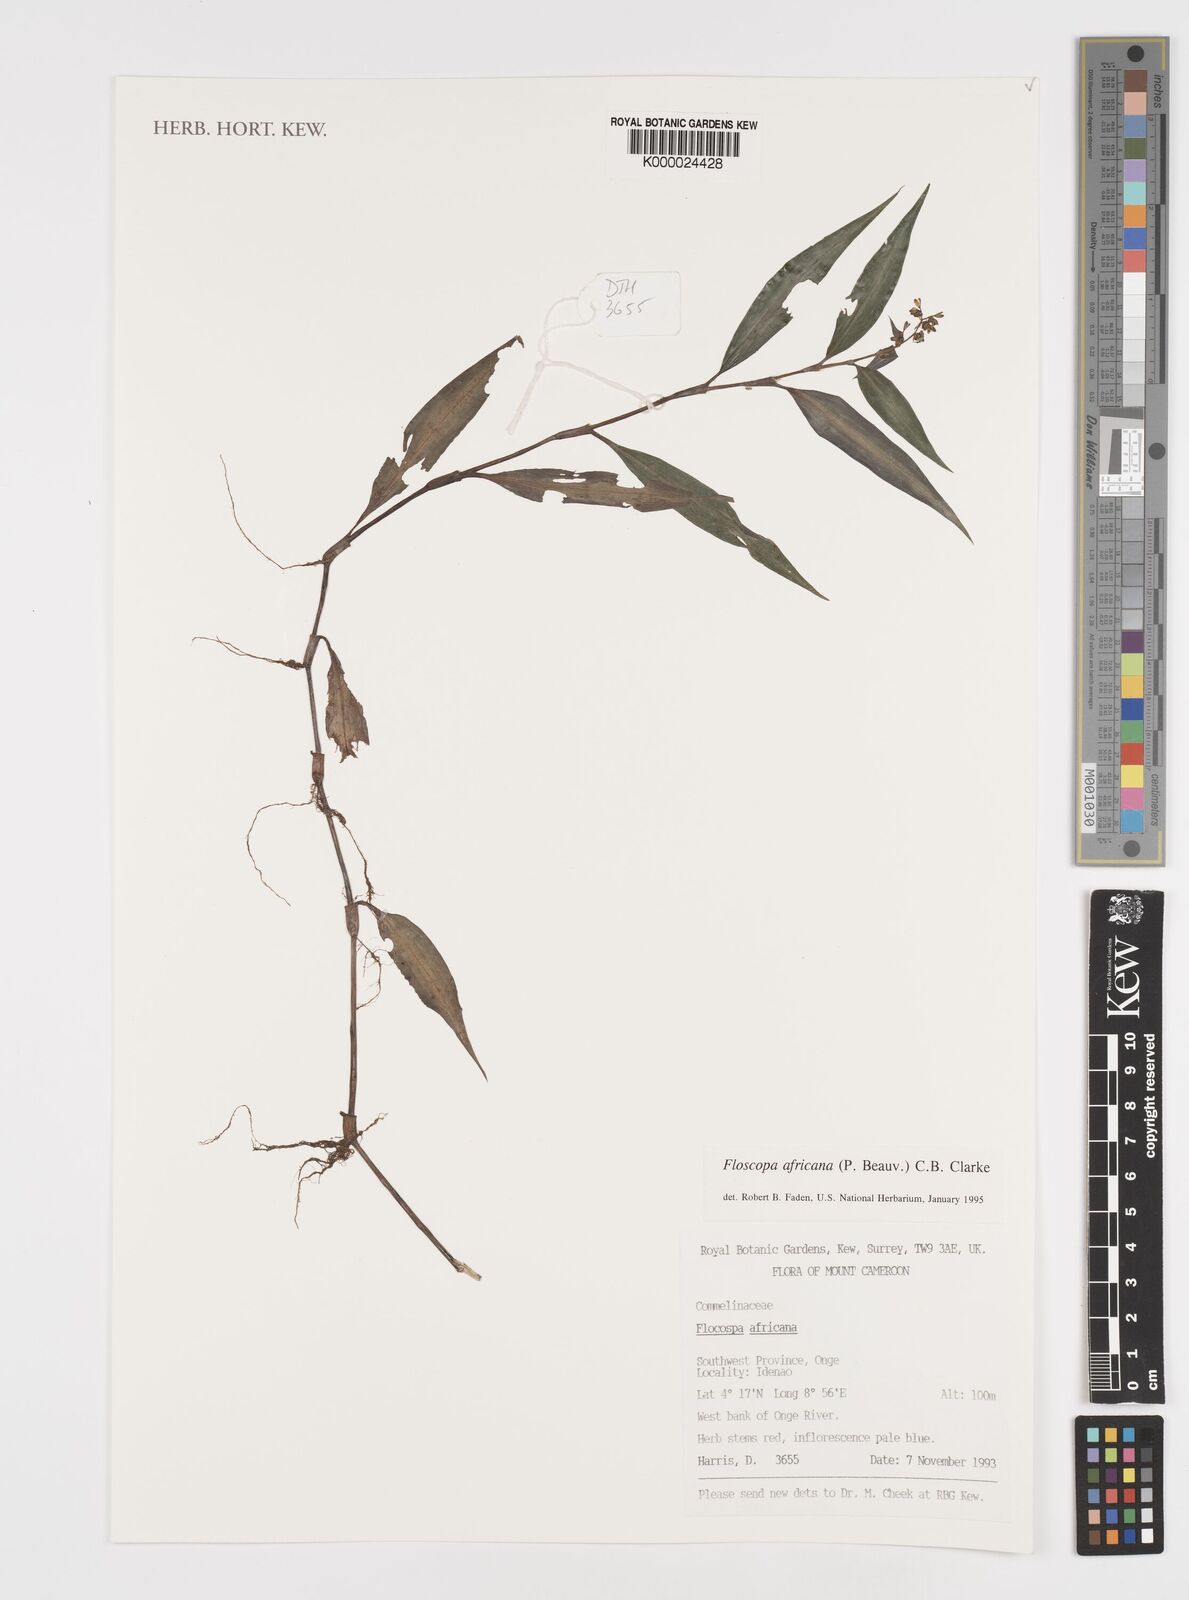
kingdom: Plantae
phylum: Tracheophyta
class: Liliopsida
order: Commelinales
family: Commelinaceae
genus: Floscopa
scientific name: Floscopa africana
